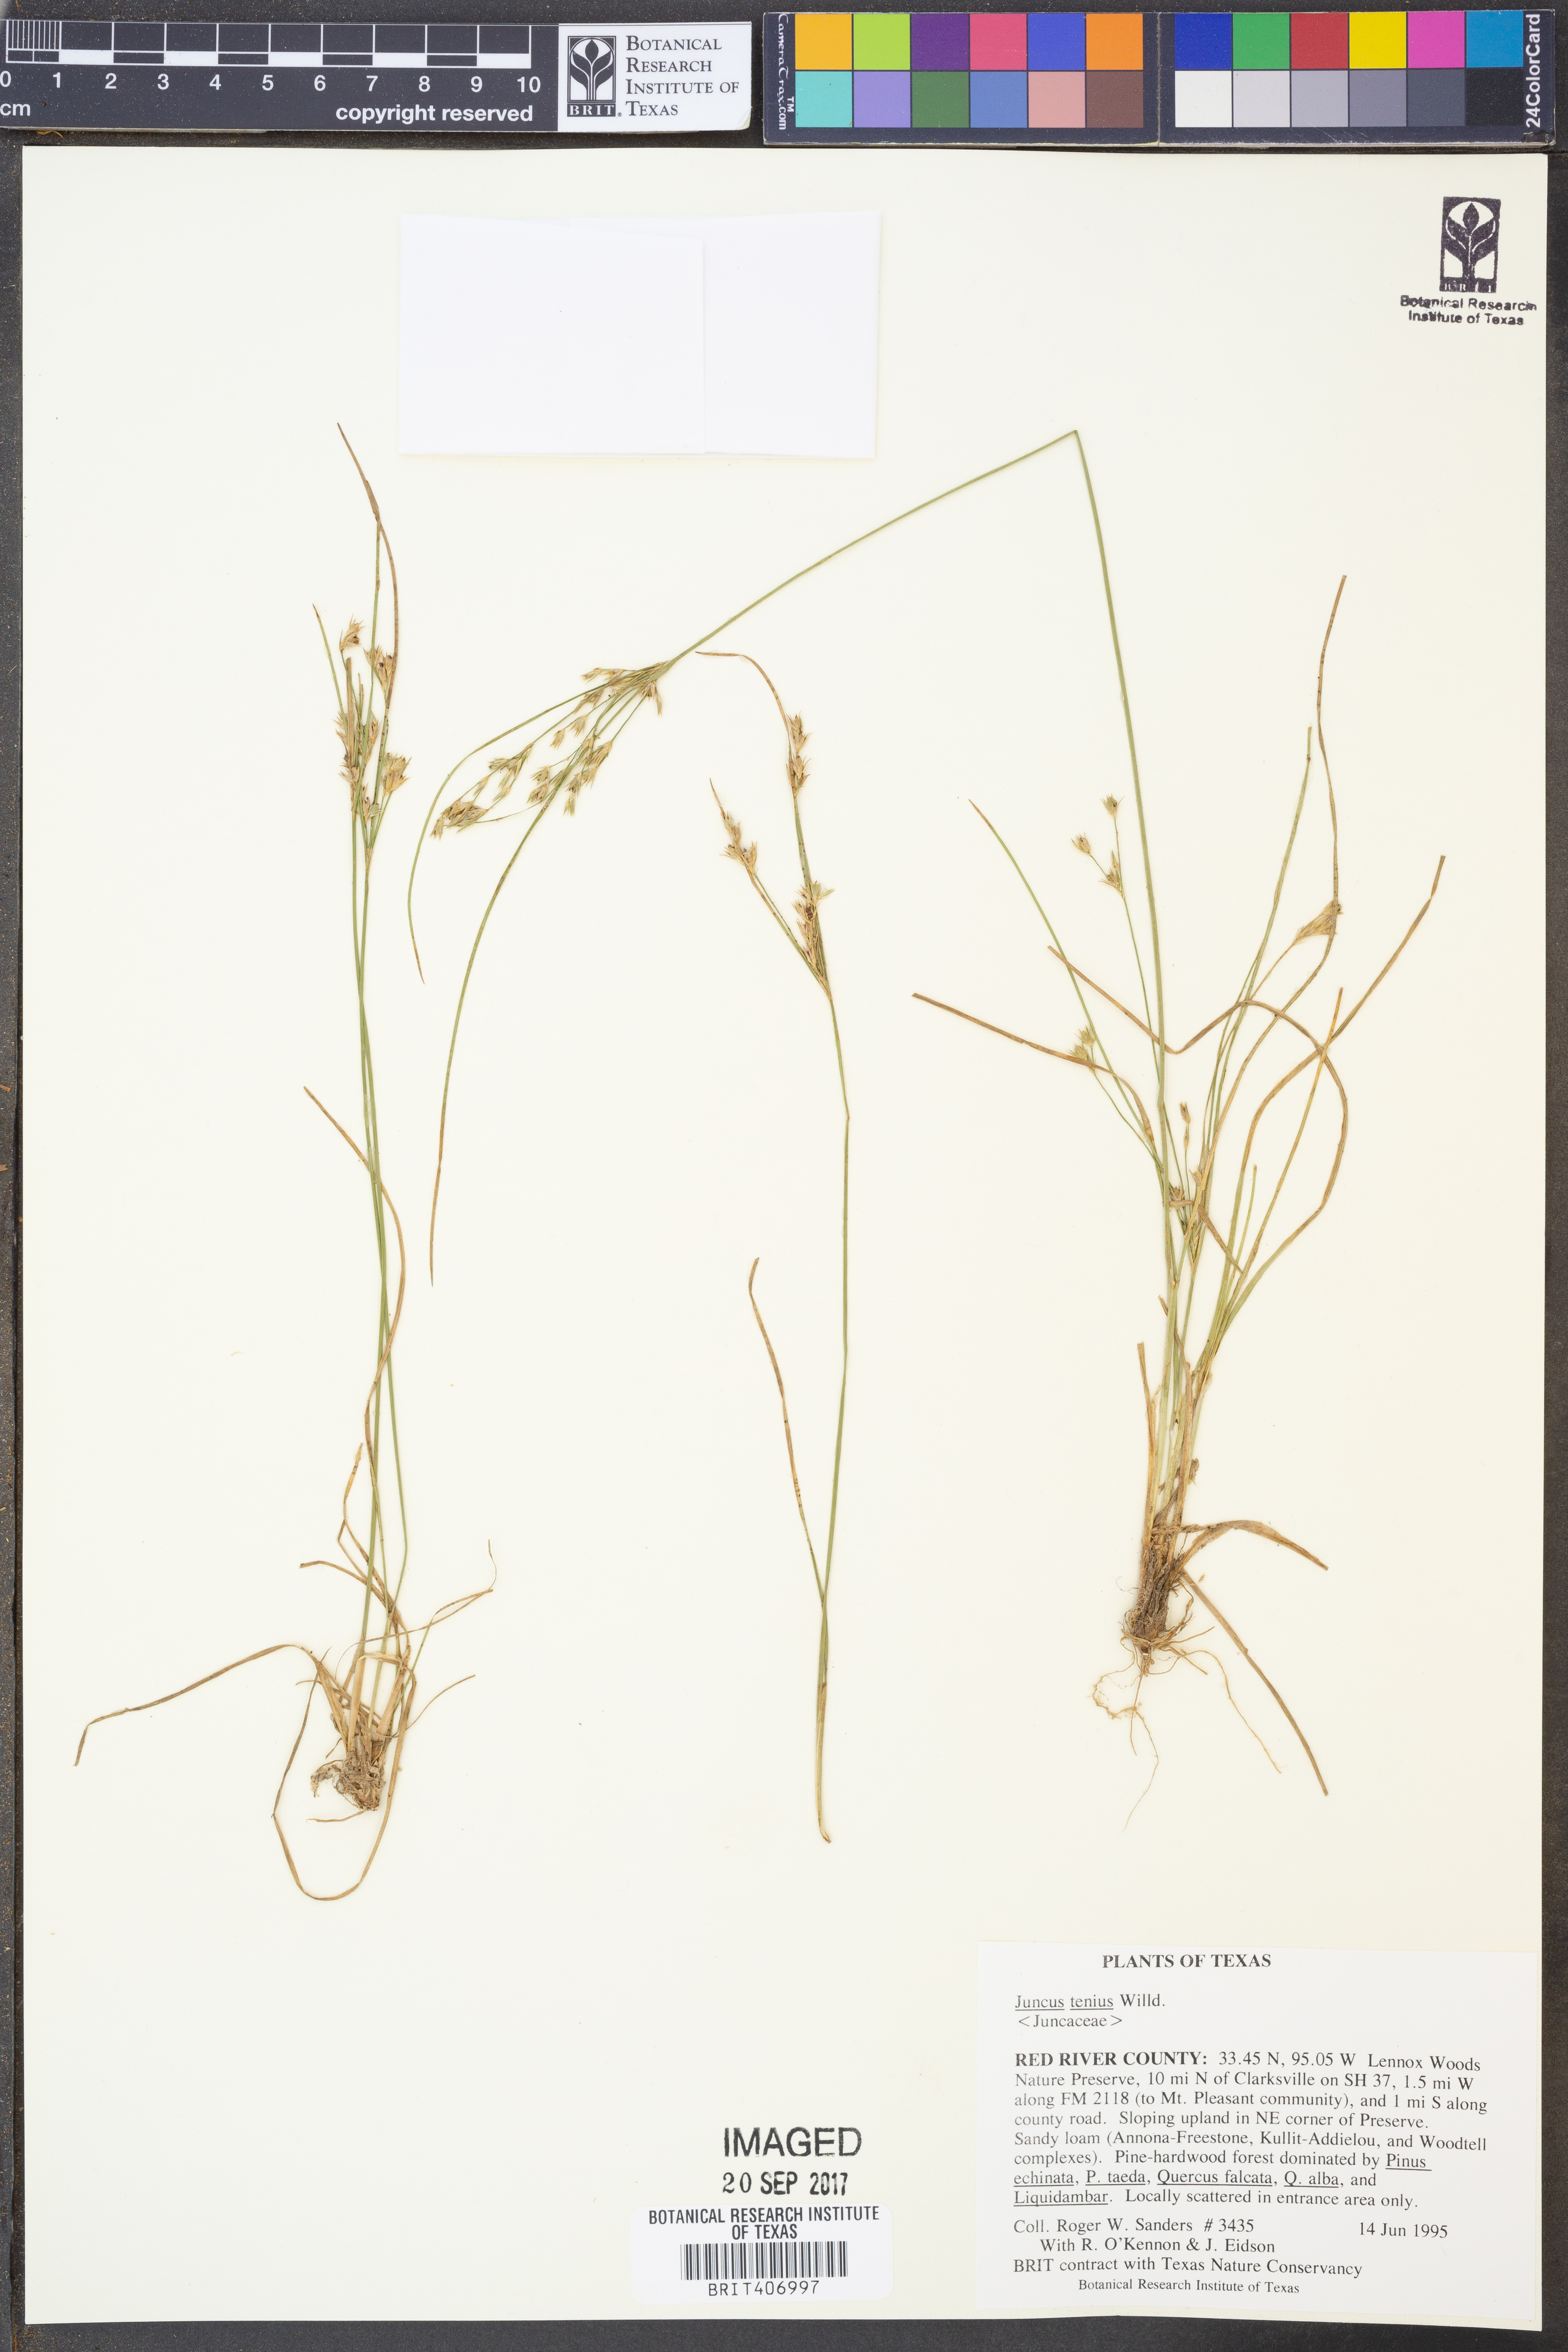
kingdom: Plantae
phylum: Tracheophyta
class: Liliopsida
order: Poales
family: Juncaceae
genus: Juncus
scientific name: Juncus tenuis
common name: Slender rush
